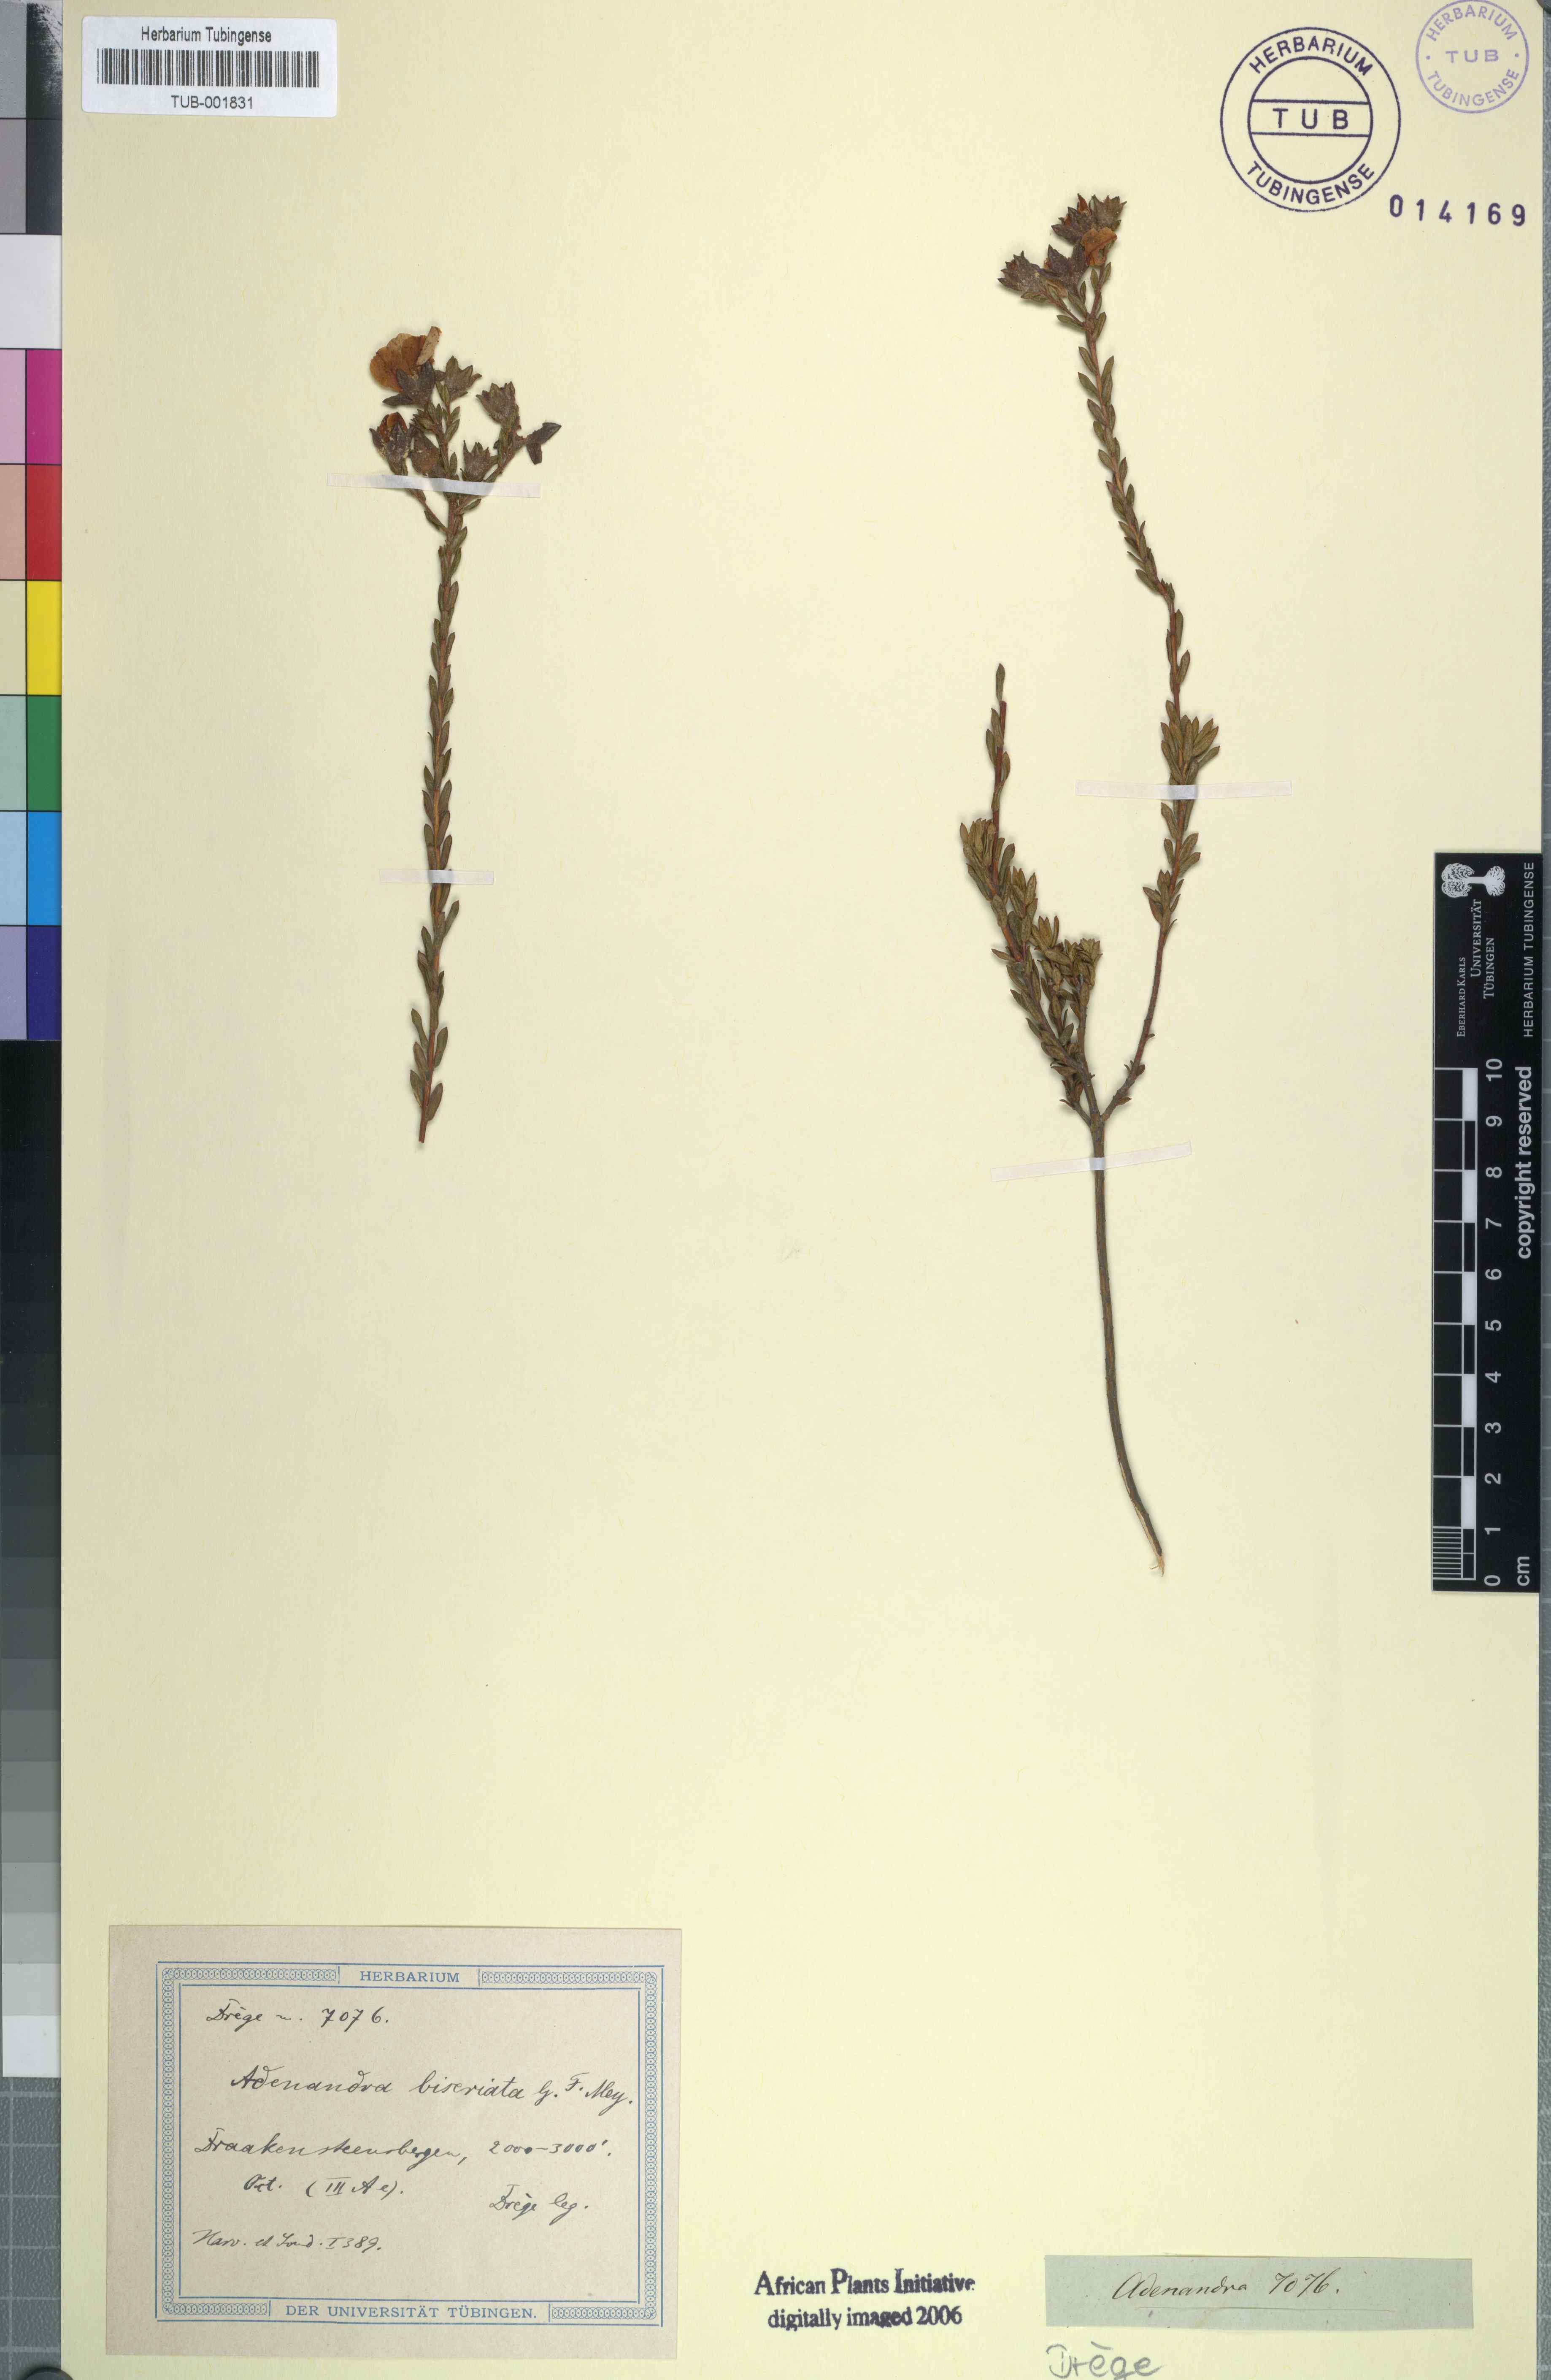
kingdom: Plantae
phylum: Tracheophyta
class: Magnoliopsida
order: Sapindales
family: Rutaceae
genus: Adenandra
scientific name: Adenandra villosa
